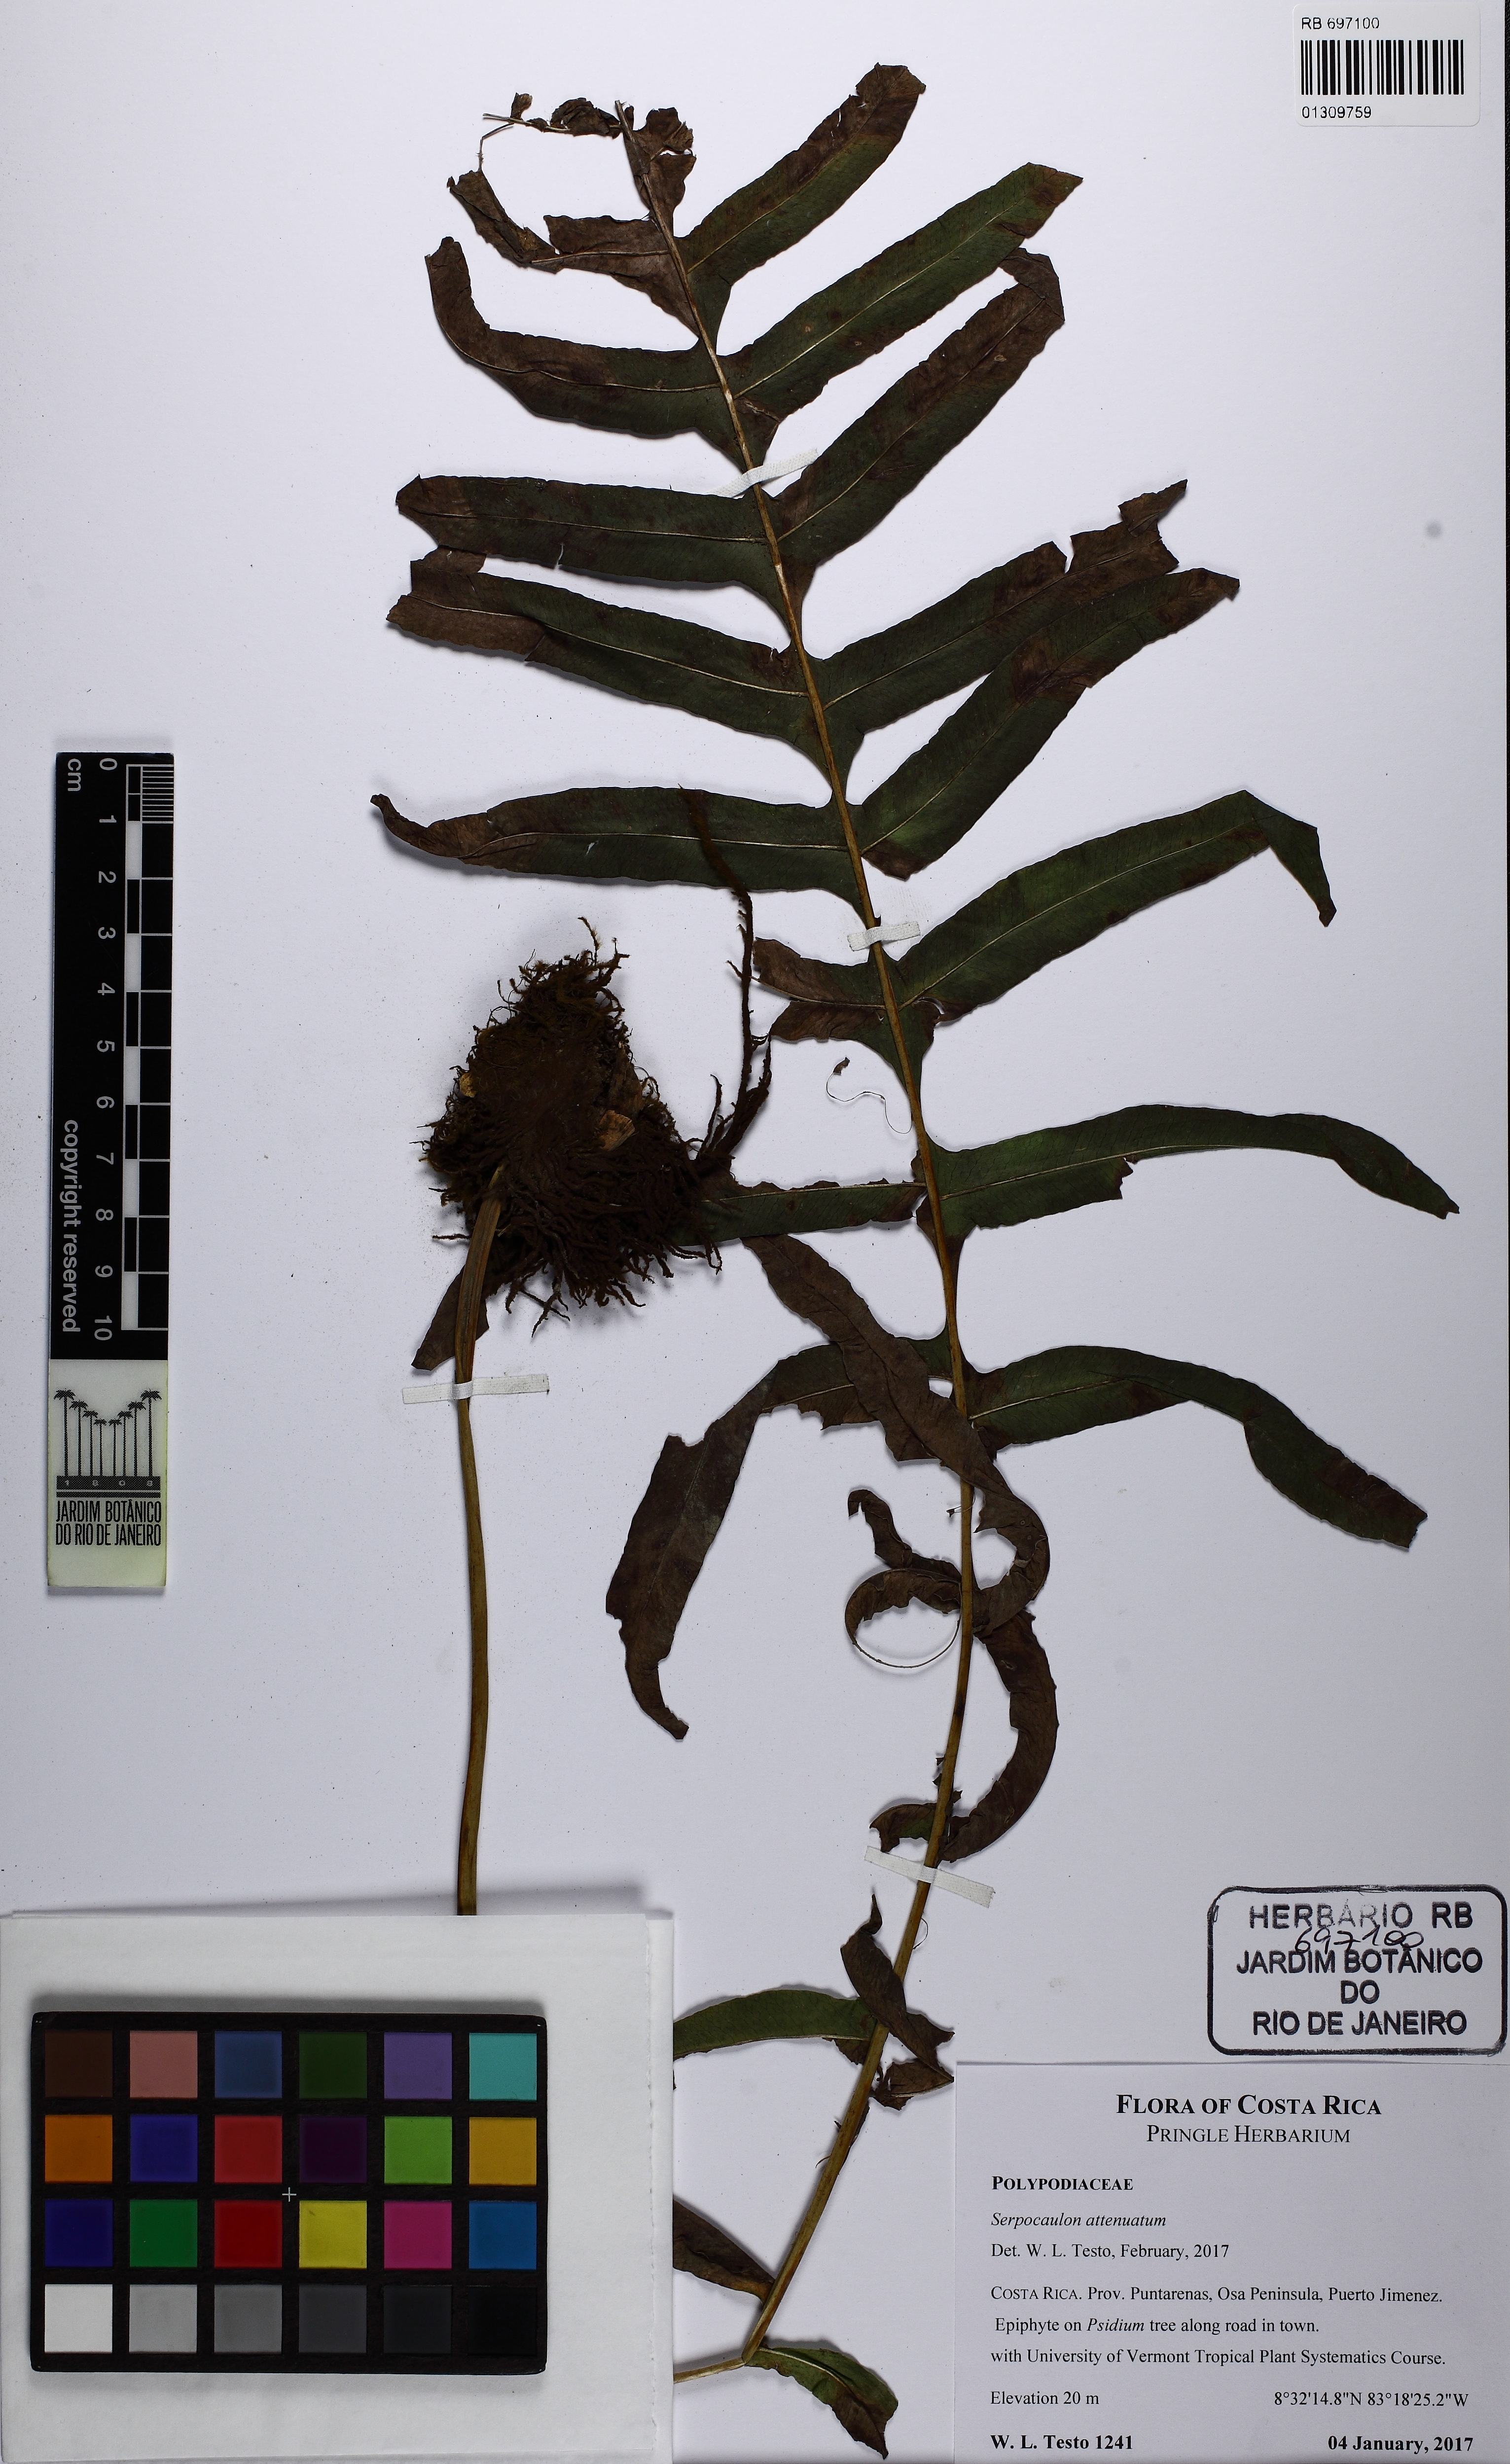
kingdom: Plantae
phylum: Tracheophyta
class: Polypodiopsida
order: Polypodiales
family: Polypodiaceae
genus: Serpocaulon
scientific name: Serpocaulon attenuatum
